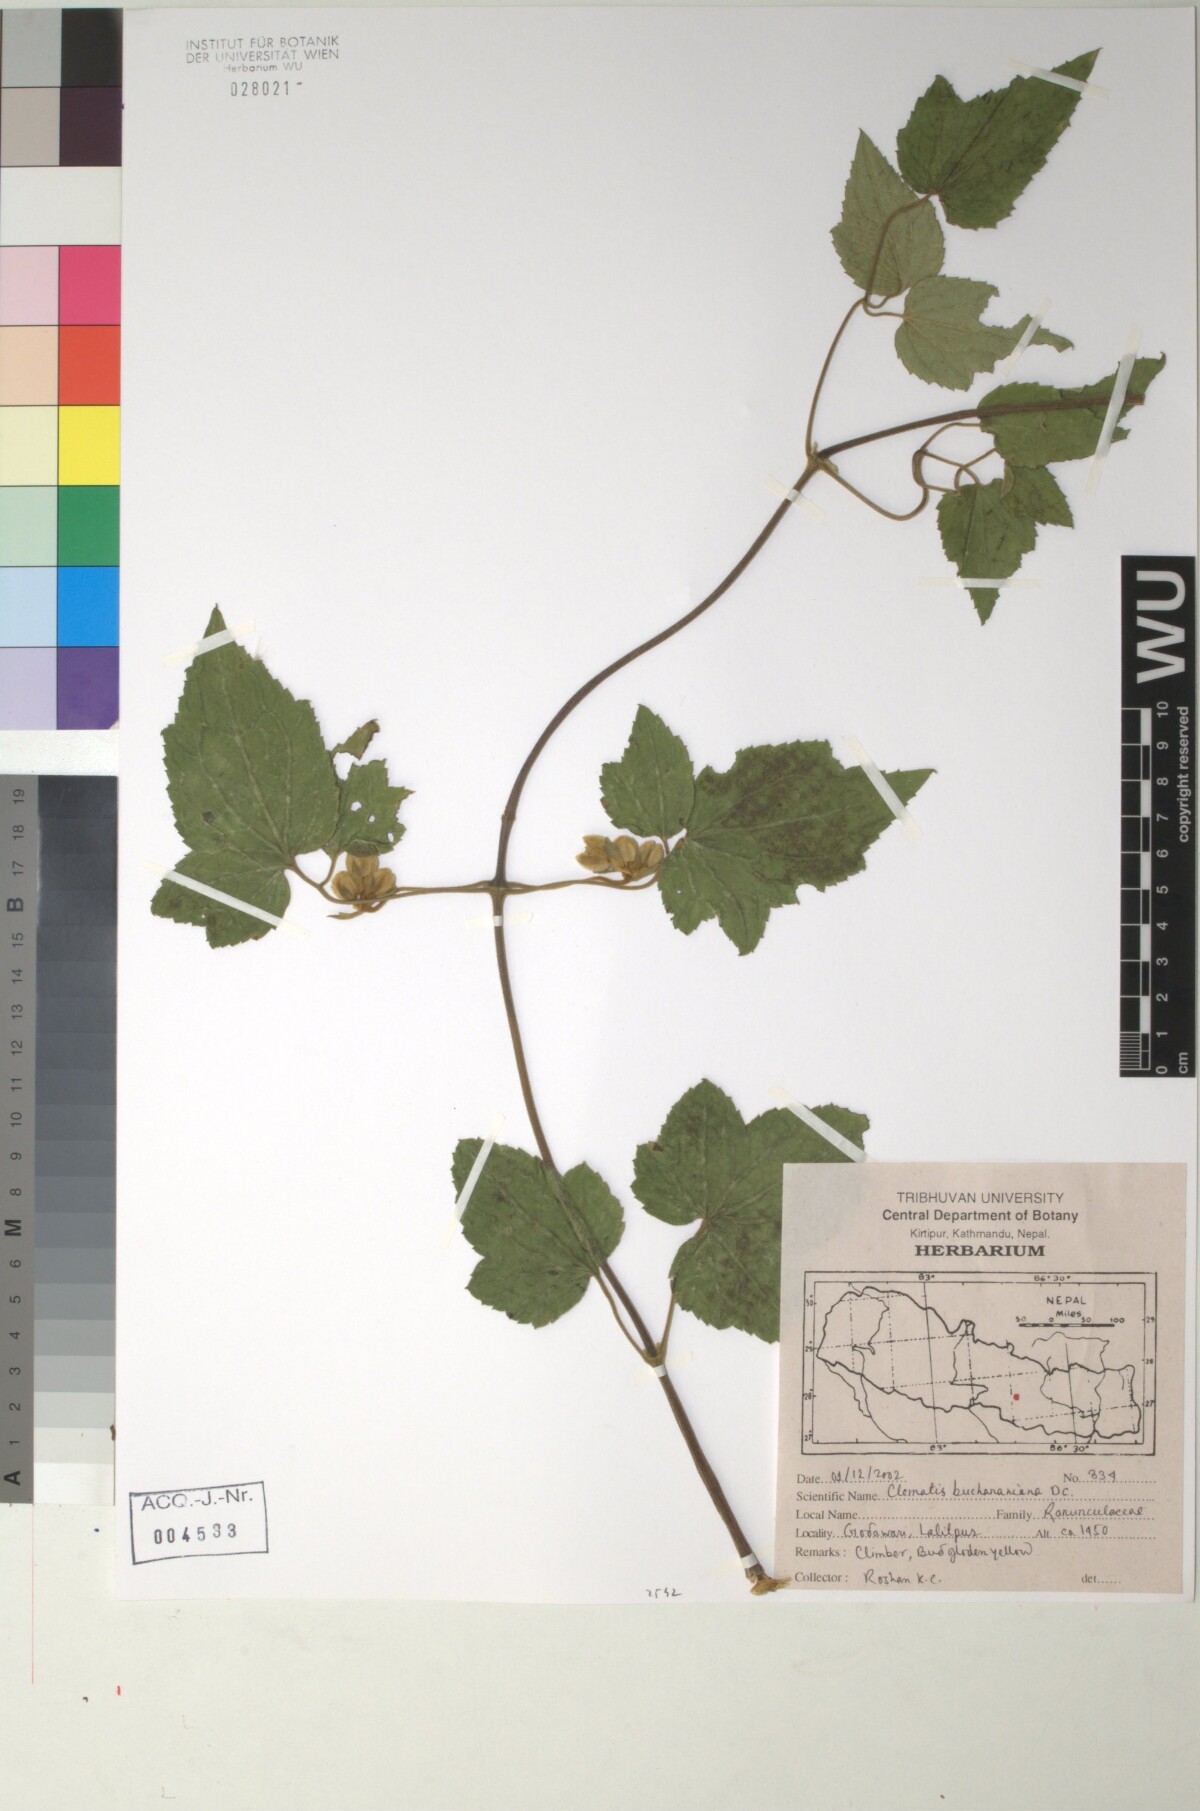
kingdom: Plantae
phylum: Tracheophyta
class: Magnoliopsida
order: Ranunculales
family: Ranunculaceae
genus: Clematis
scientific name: Clematis buchaniana
